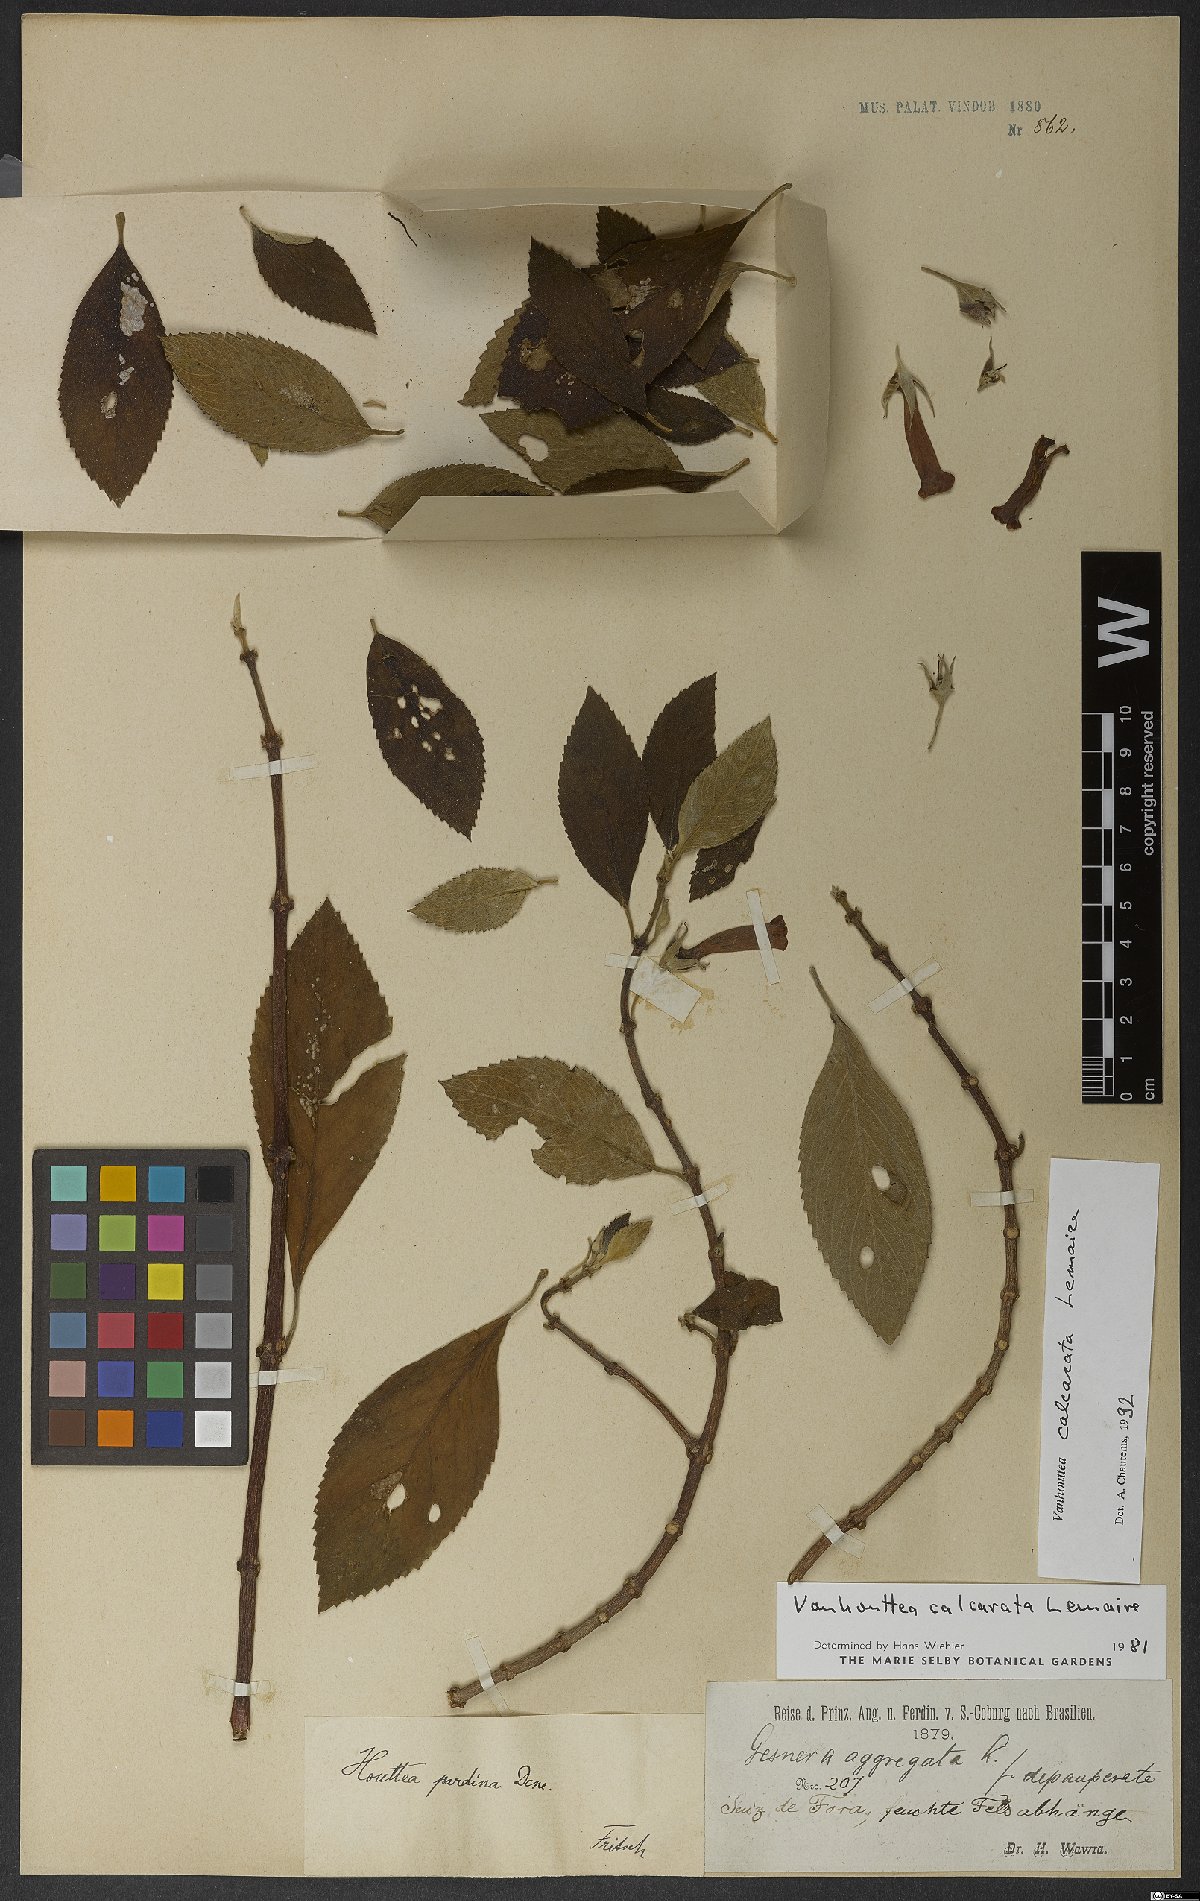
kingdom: Plantae
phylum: Tracheophyta
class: Magnoliopsida
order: Lamiales
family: Gesneriaceae
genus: Vanhouttea
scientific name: Vanhouttea calcarata
